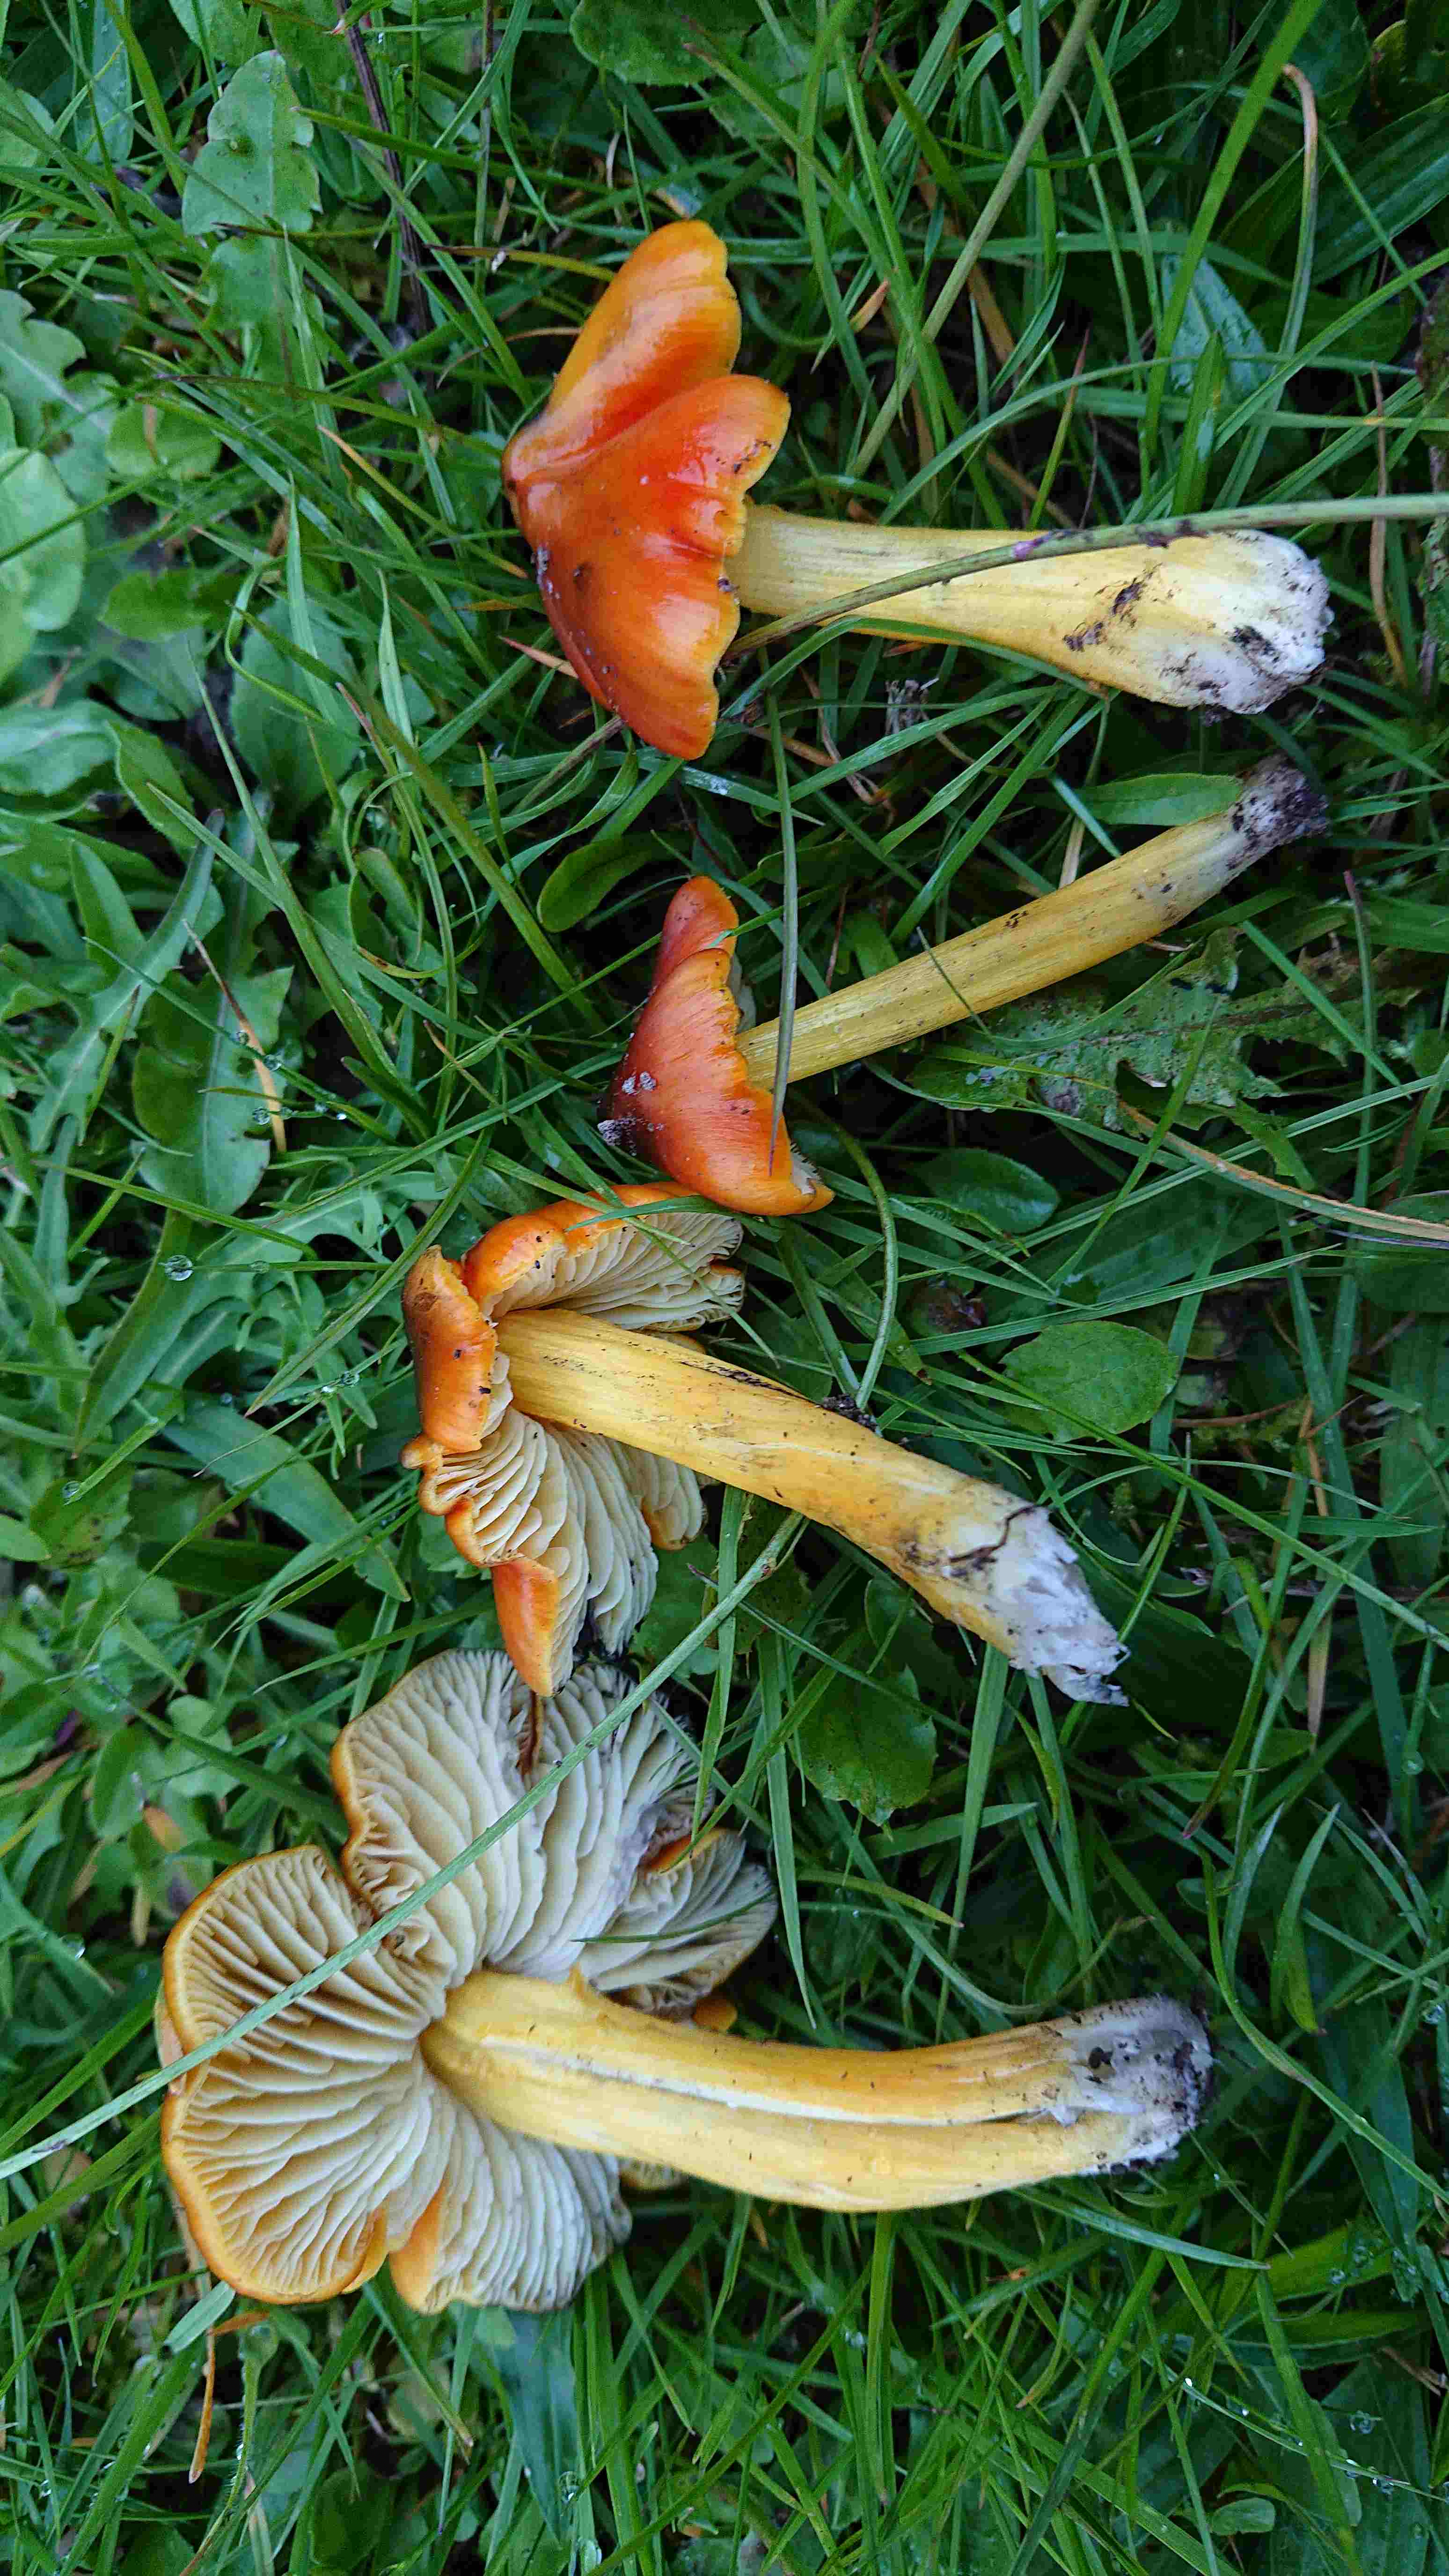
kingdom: Fungi
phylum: Basidiomycota
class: Agaricomycetes
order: Agaricales
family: Hygrophoraceae
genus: Hygrocybe
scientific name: Hygrocybe conica
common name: kegle-vokshat
